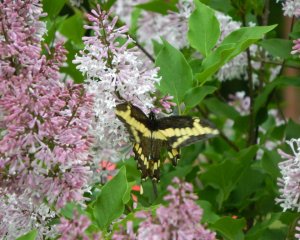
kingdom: Animalia
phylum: Arthropoda
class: Insecta
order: Lepidoptera
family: Papilionidae
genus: Papilio
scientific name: Papilio cresphontes
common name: Eastern Giant Swallowtail
